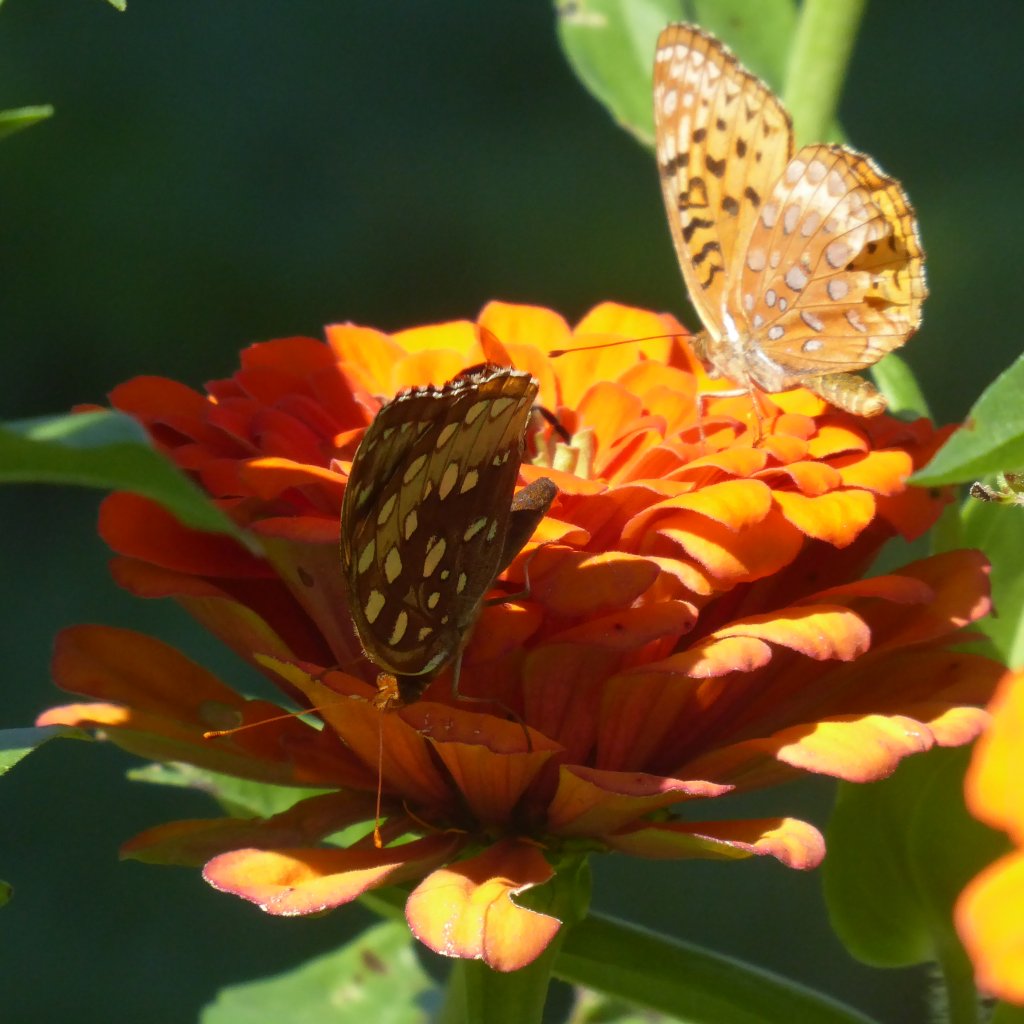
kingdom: Animalia
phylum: Arthropoda
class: Insecta
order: Lepidoptera
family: Nymphalidae
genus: Speyeria
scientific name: Speyeria cybele
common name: Great Spangled Fritillary
